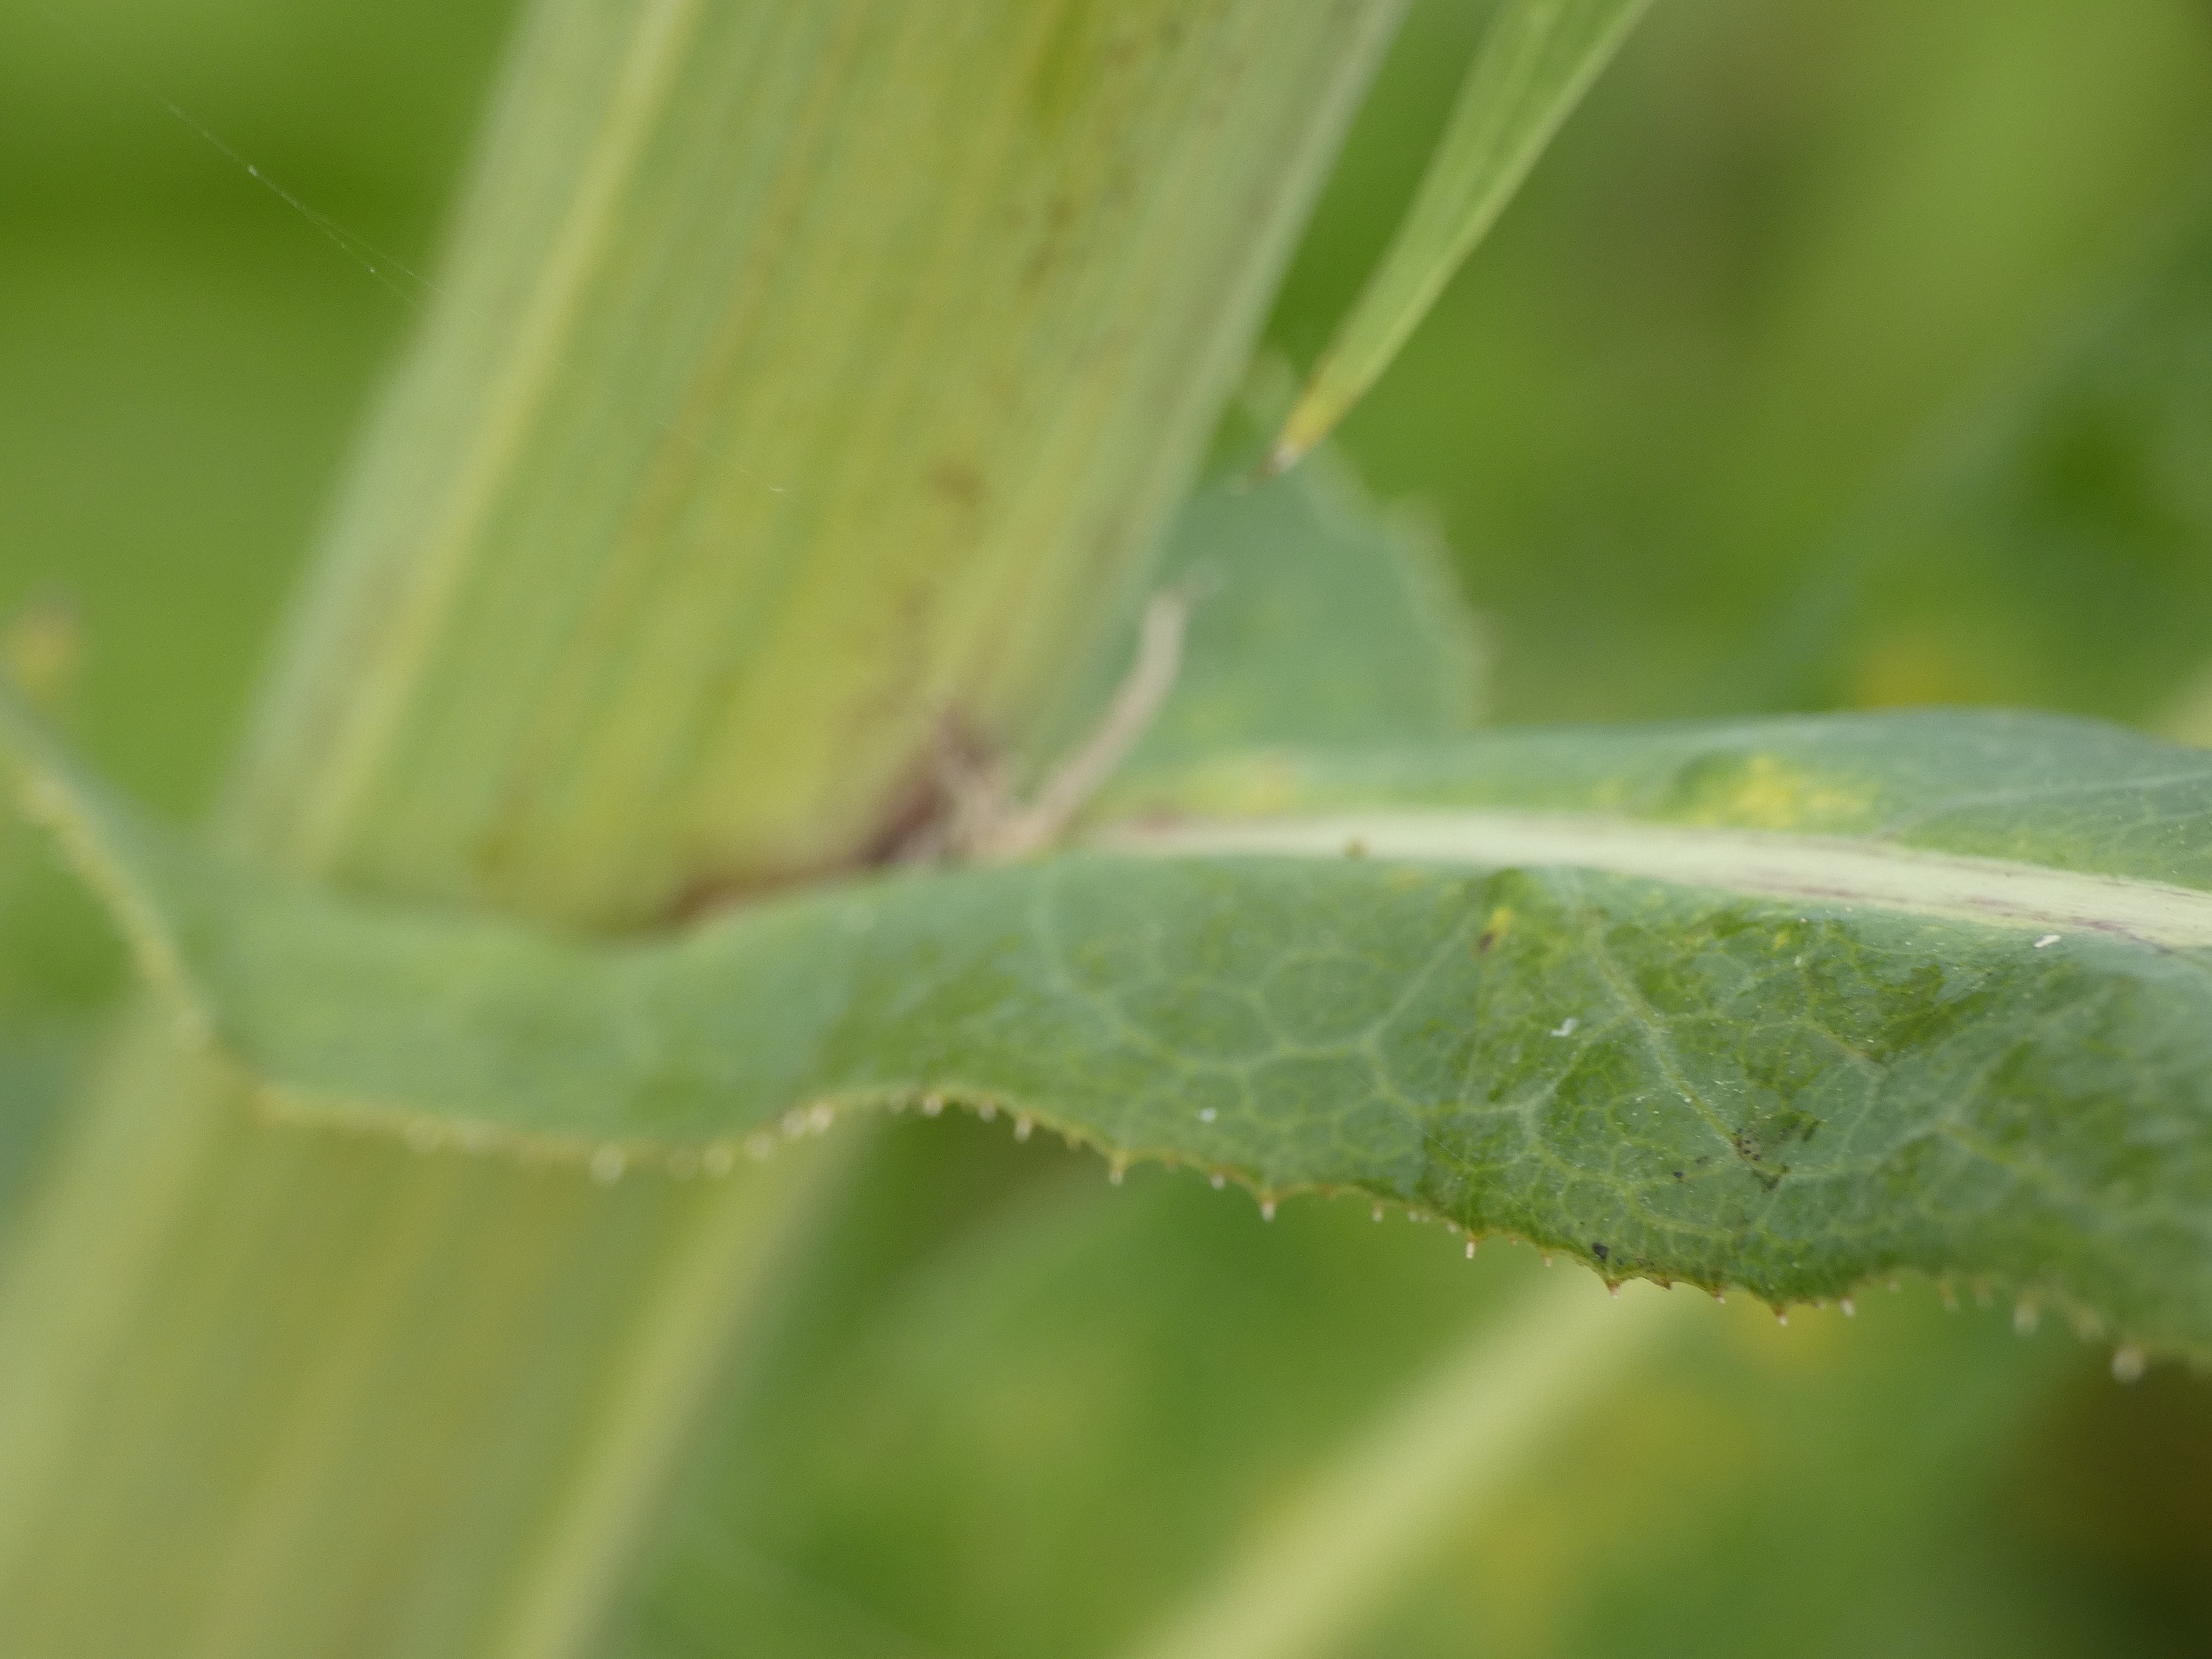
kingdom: Plantae
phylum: Tracheophyta
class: Magnoliopsida
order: Asterales
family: Asteraceae
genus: Sonchus
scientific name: Sonchus palustris
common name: Kær-svinemælk
